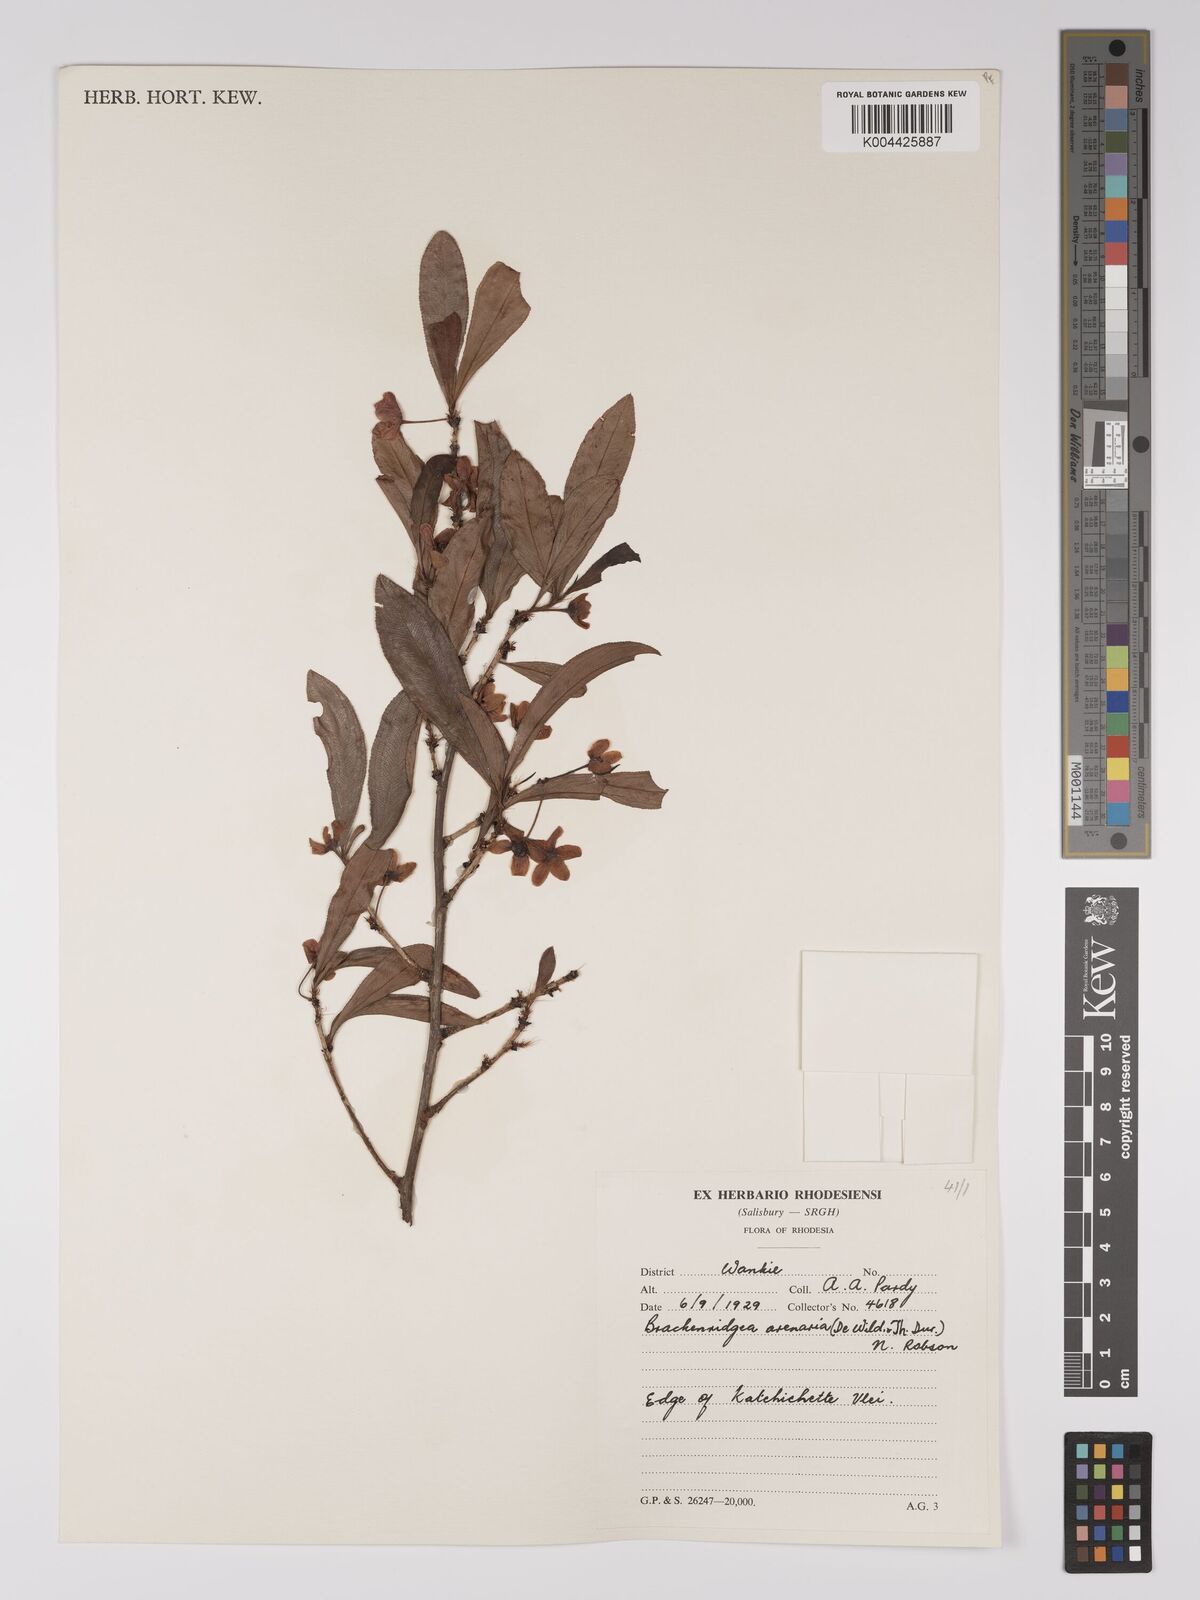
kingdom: Plantae
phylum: Tracheophyta
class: Magnoliopsida
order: Malpighiales
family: Ochnaceae
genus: Ochna
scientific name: Ochna arenaria
